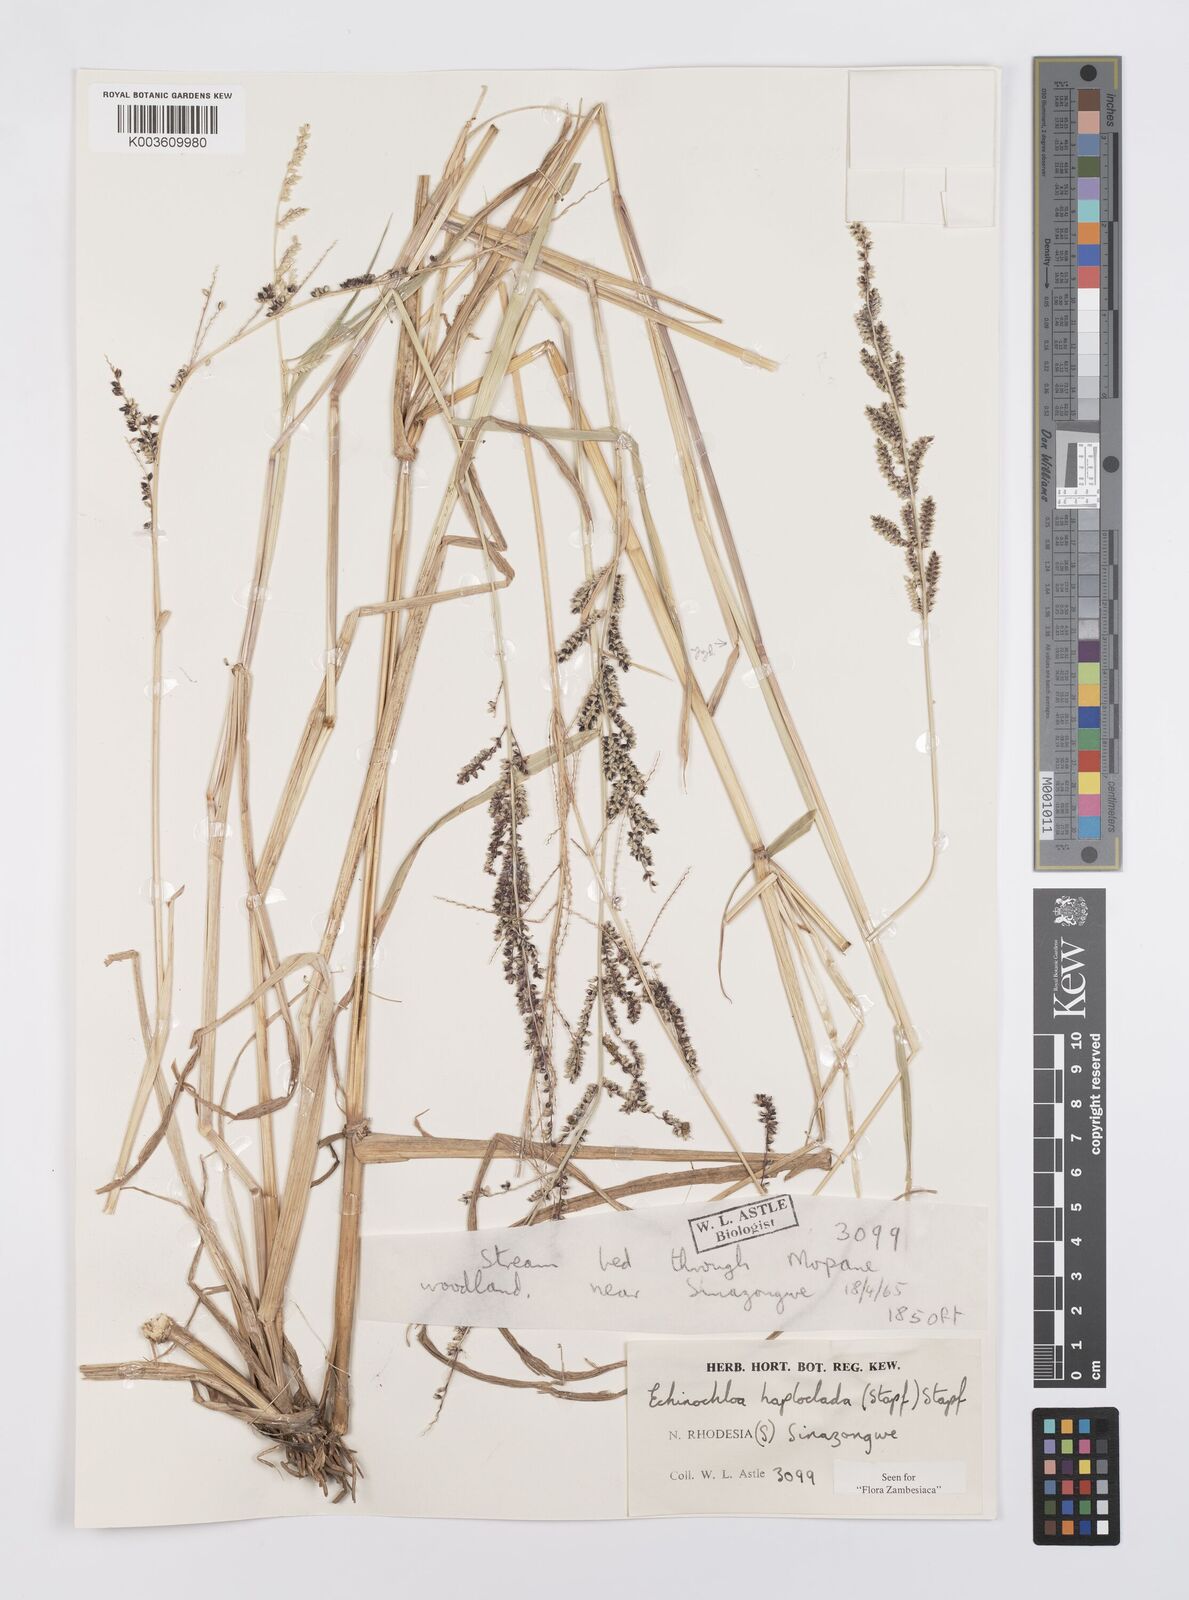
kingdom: Plantae
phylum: Tracheophyta
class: Liliopsida
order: Poales
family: Poaceae
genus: Echinochloa
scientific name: Echinochloa haploclada
